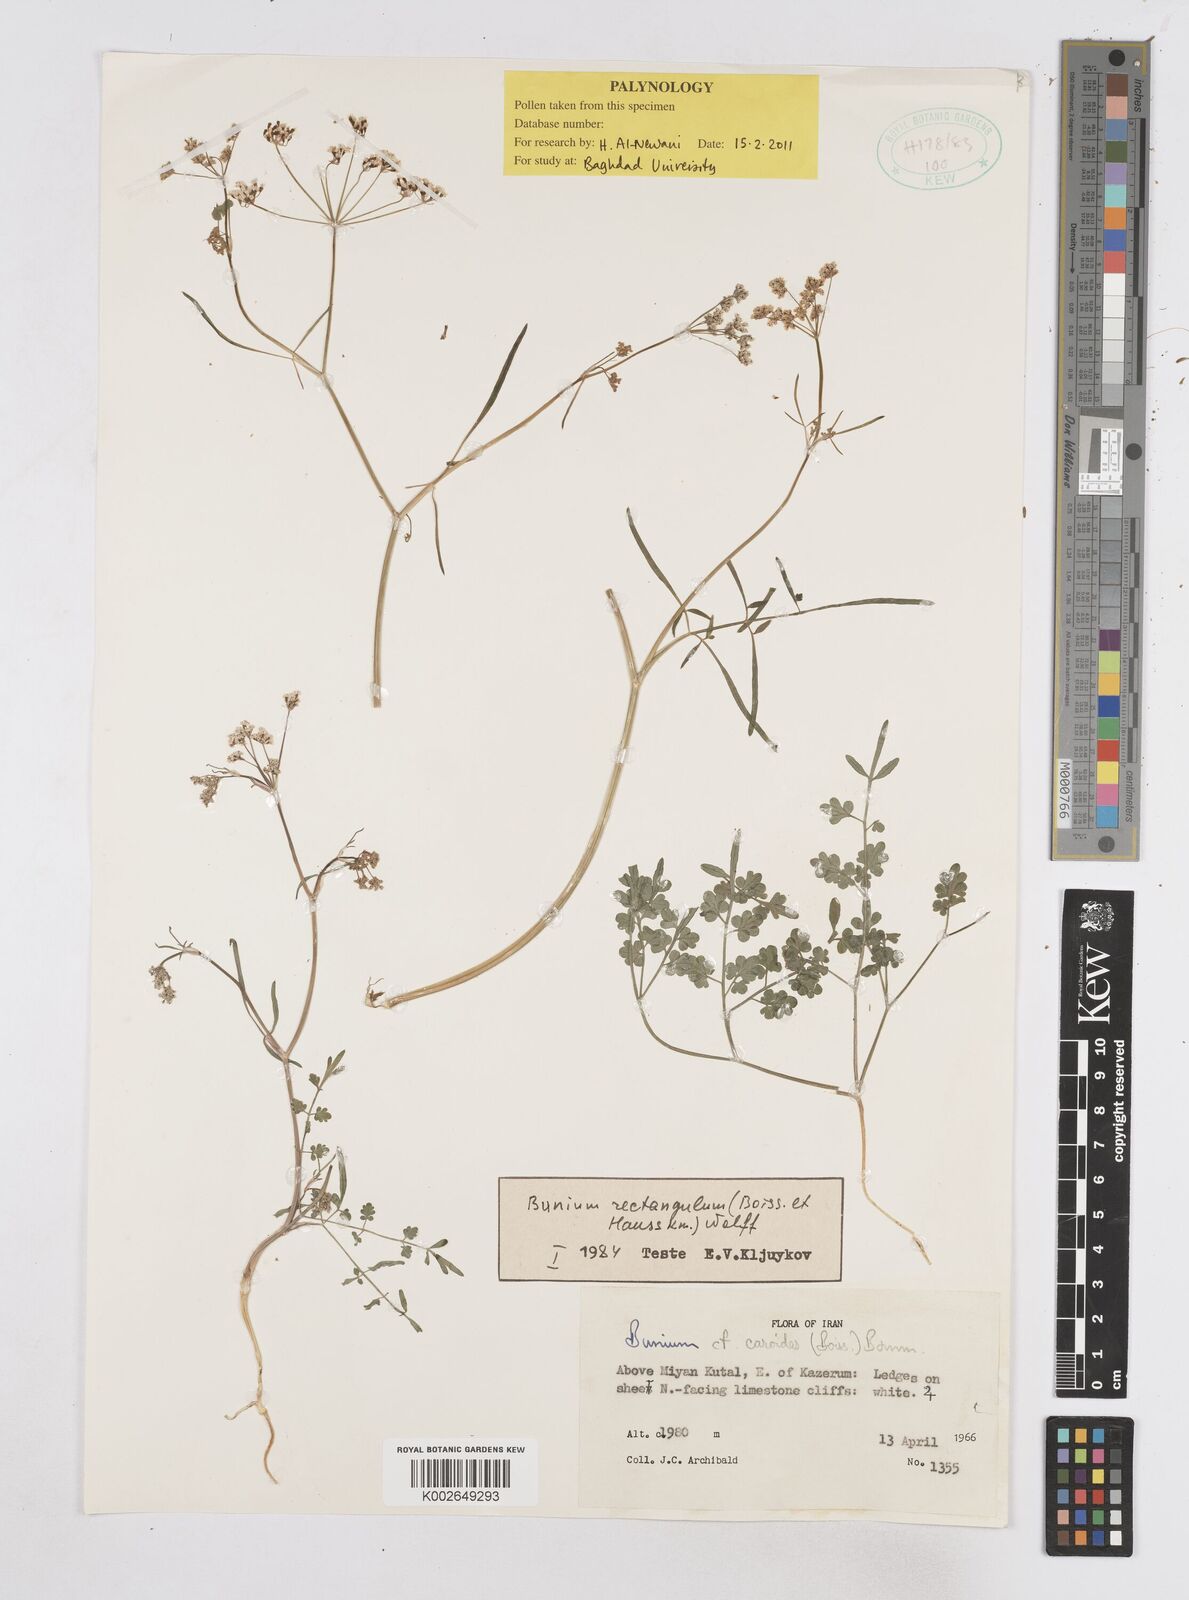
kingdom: Plantae
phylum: Tracheophyta
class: Magnoliopsida
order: Apiales
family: Apiaceae
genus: Bunium
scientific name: Bunium rectangulum
